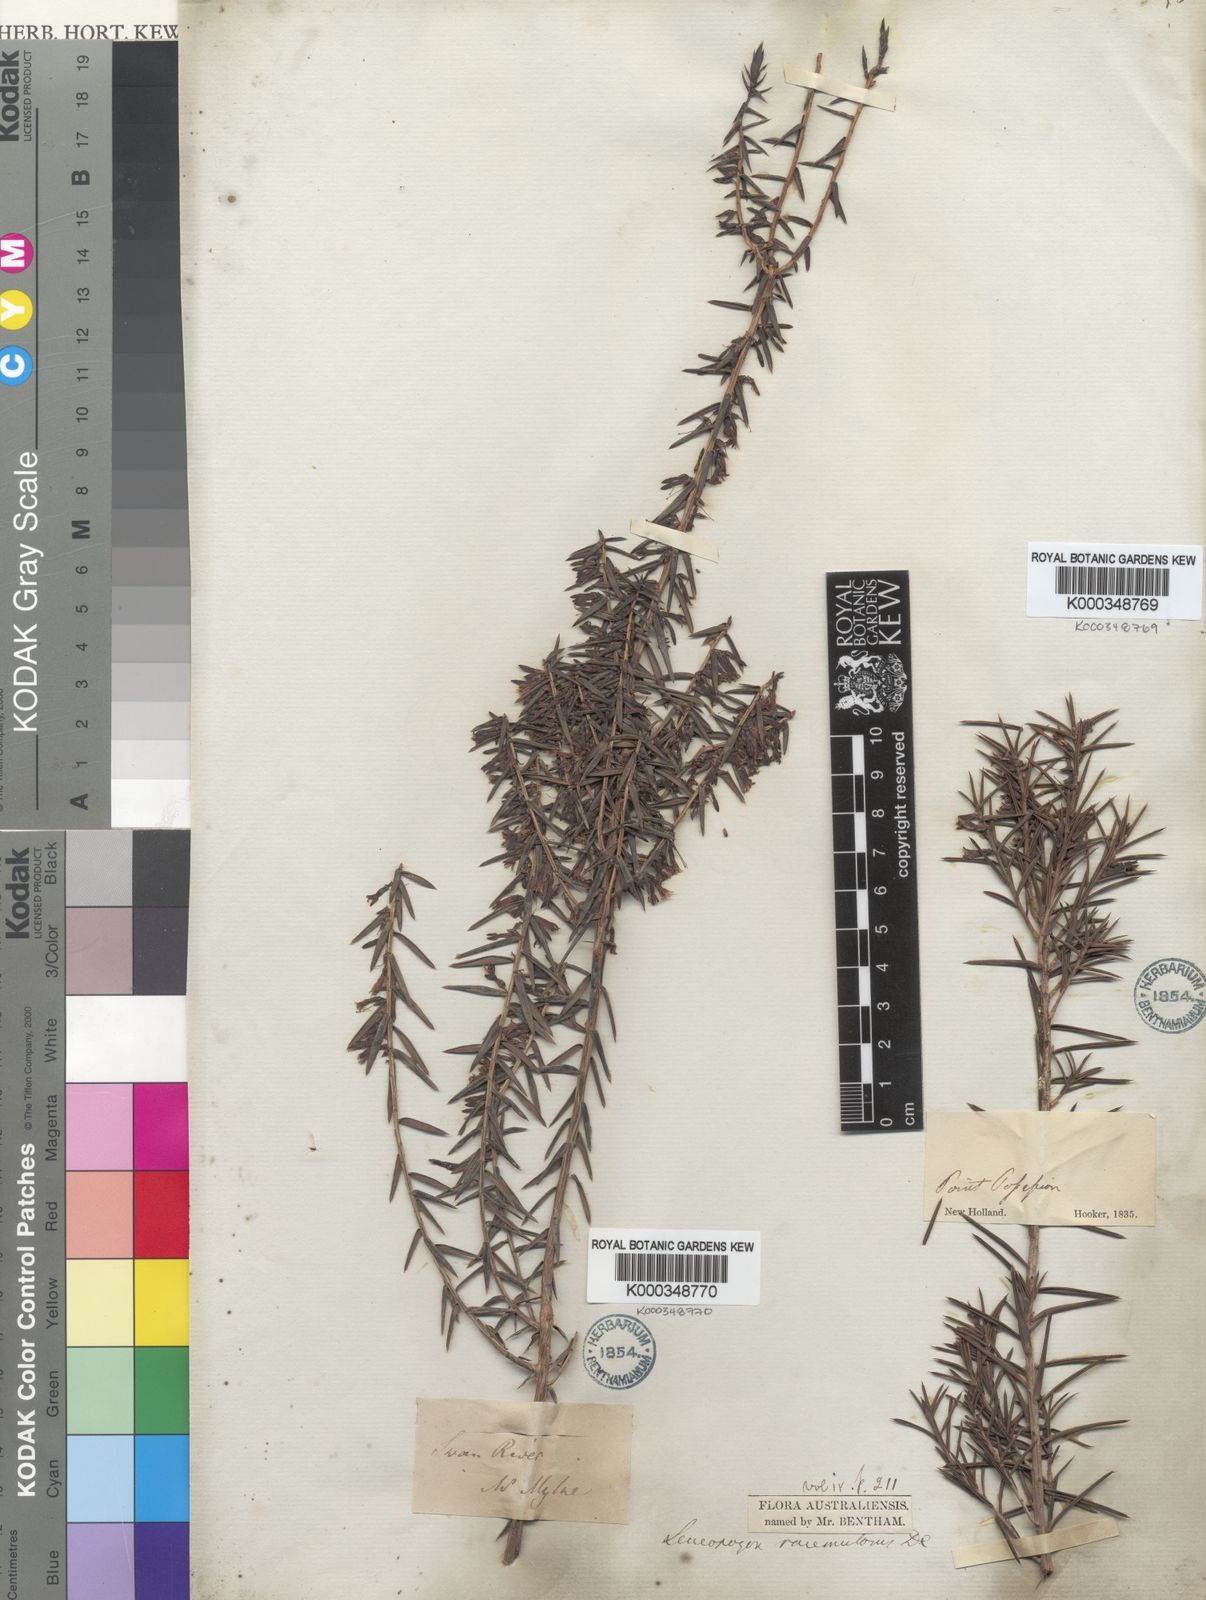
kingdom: Plantae
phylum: Tracheophyta
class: Magnoliopsida
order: Ericales
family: Ericaceae
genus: Styphelia
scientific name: Styphelia racemulosa
